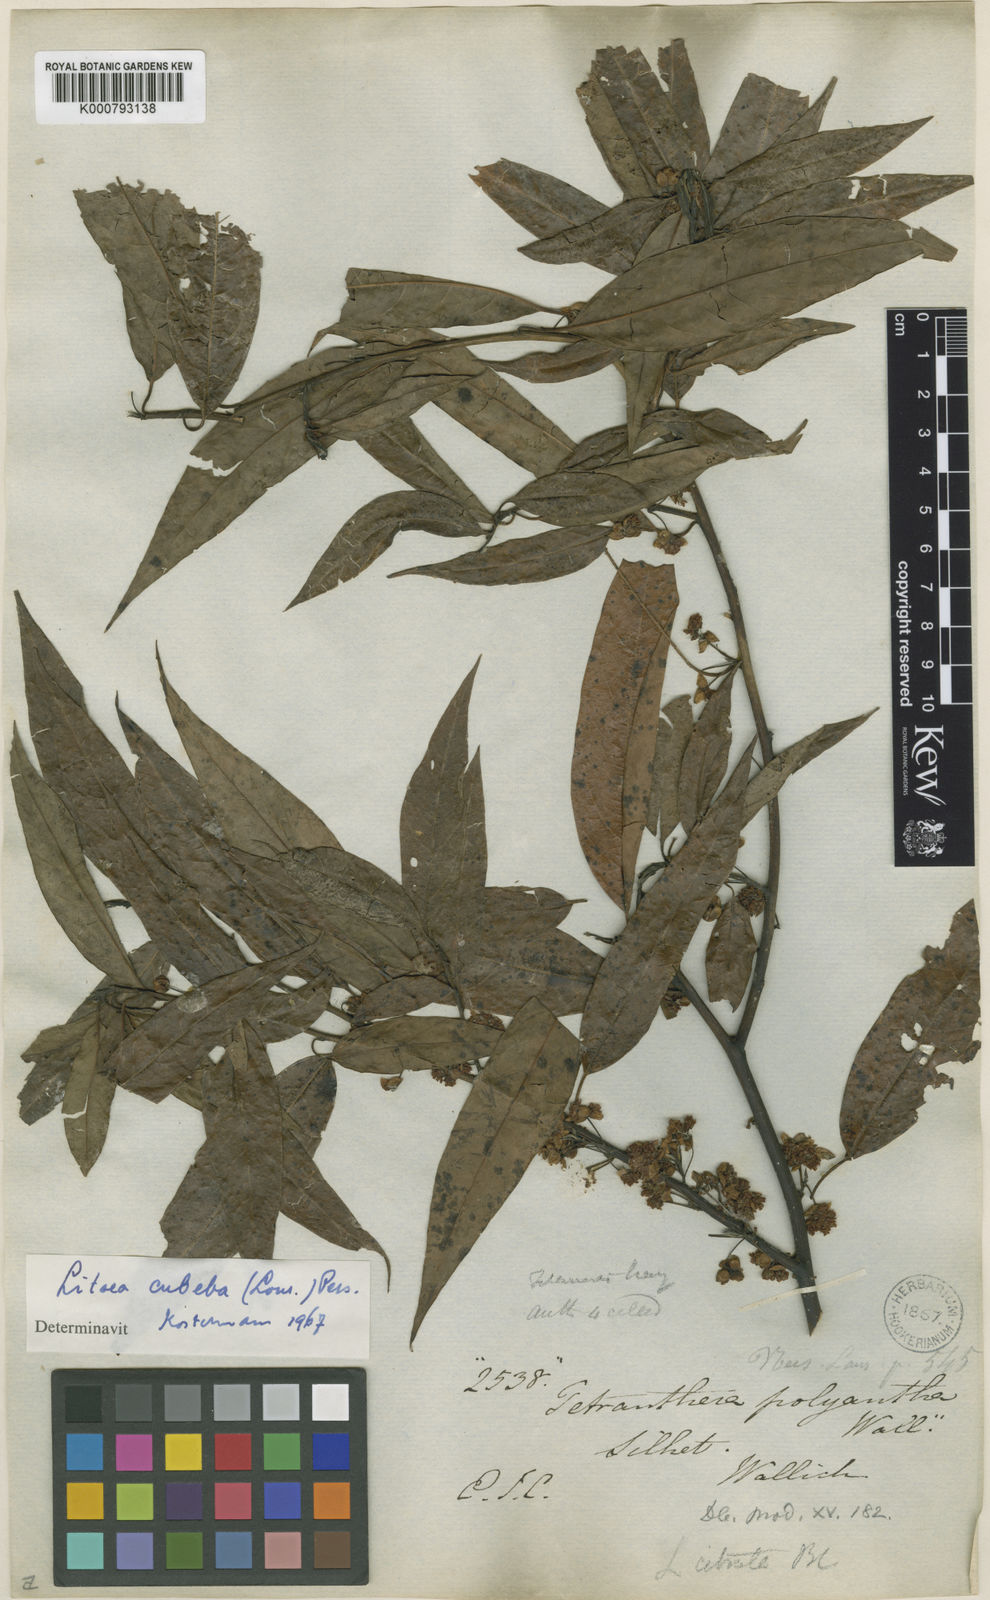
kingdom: Plantae
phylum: Tracheophyta
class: Magnoliopsida
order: Laurales
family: Lauraceae
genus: Litsea
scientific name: Litsea cubeba
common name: Mountain-pepper
